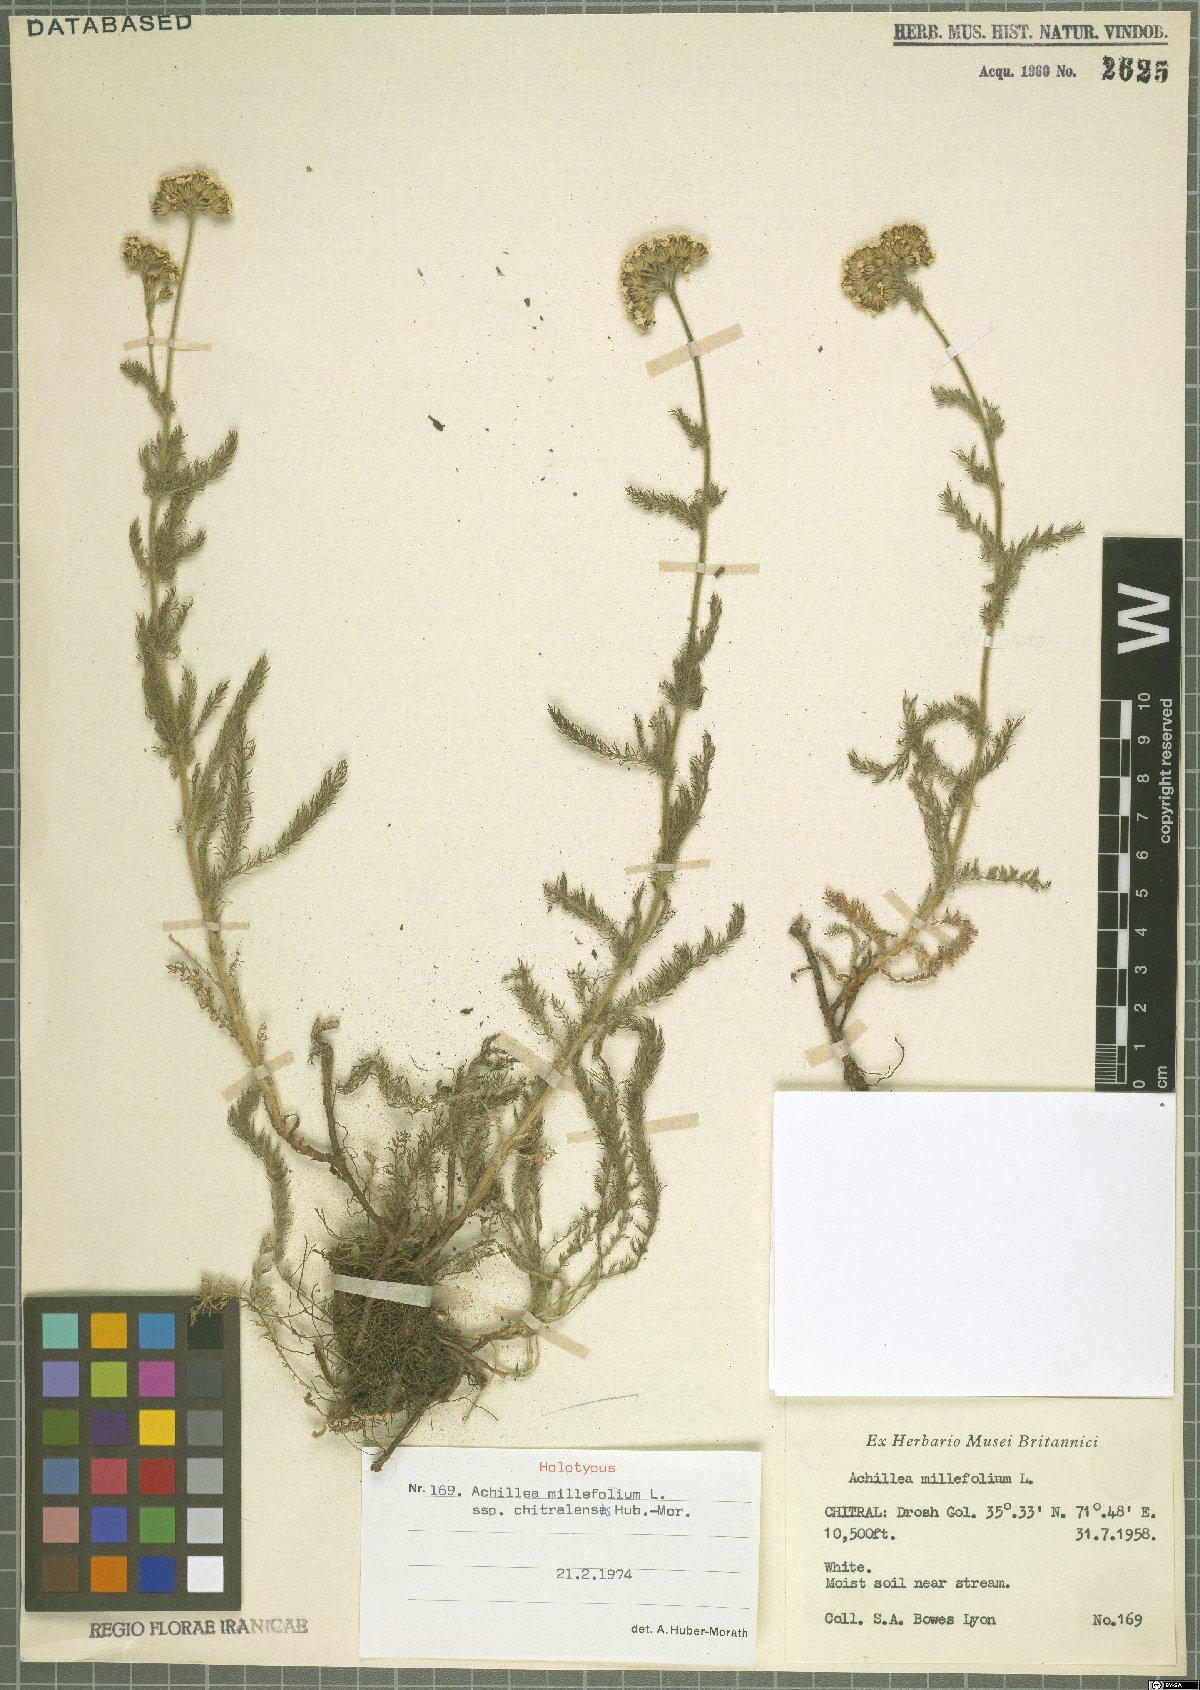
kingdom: Plantae
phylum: Tracheophyta
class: Magnoliopsida
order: Asterales
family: Asteraceae
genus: Achillea
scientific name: Achillea millefolium
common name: Yarrow
